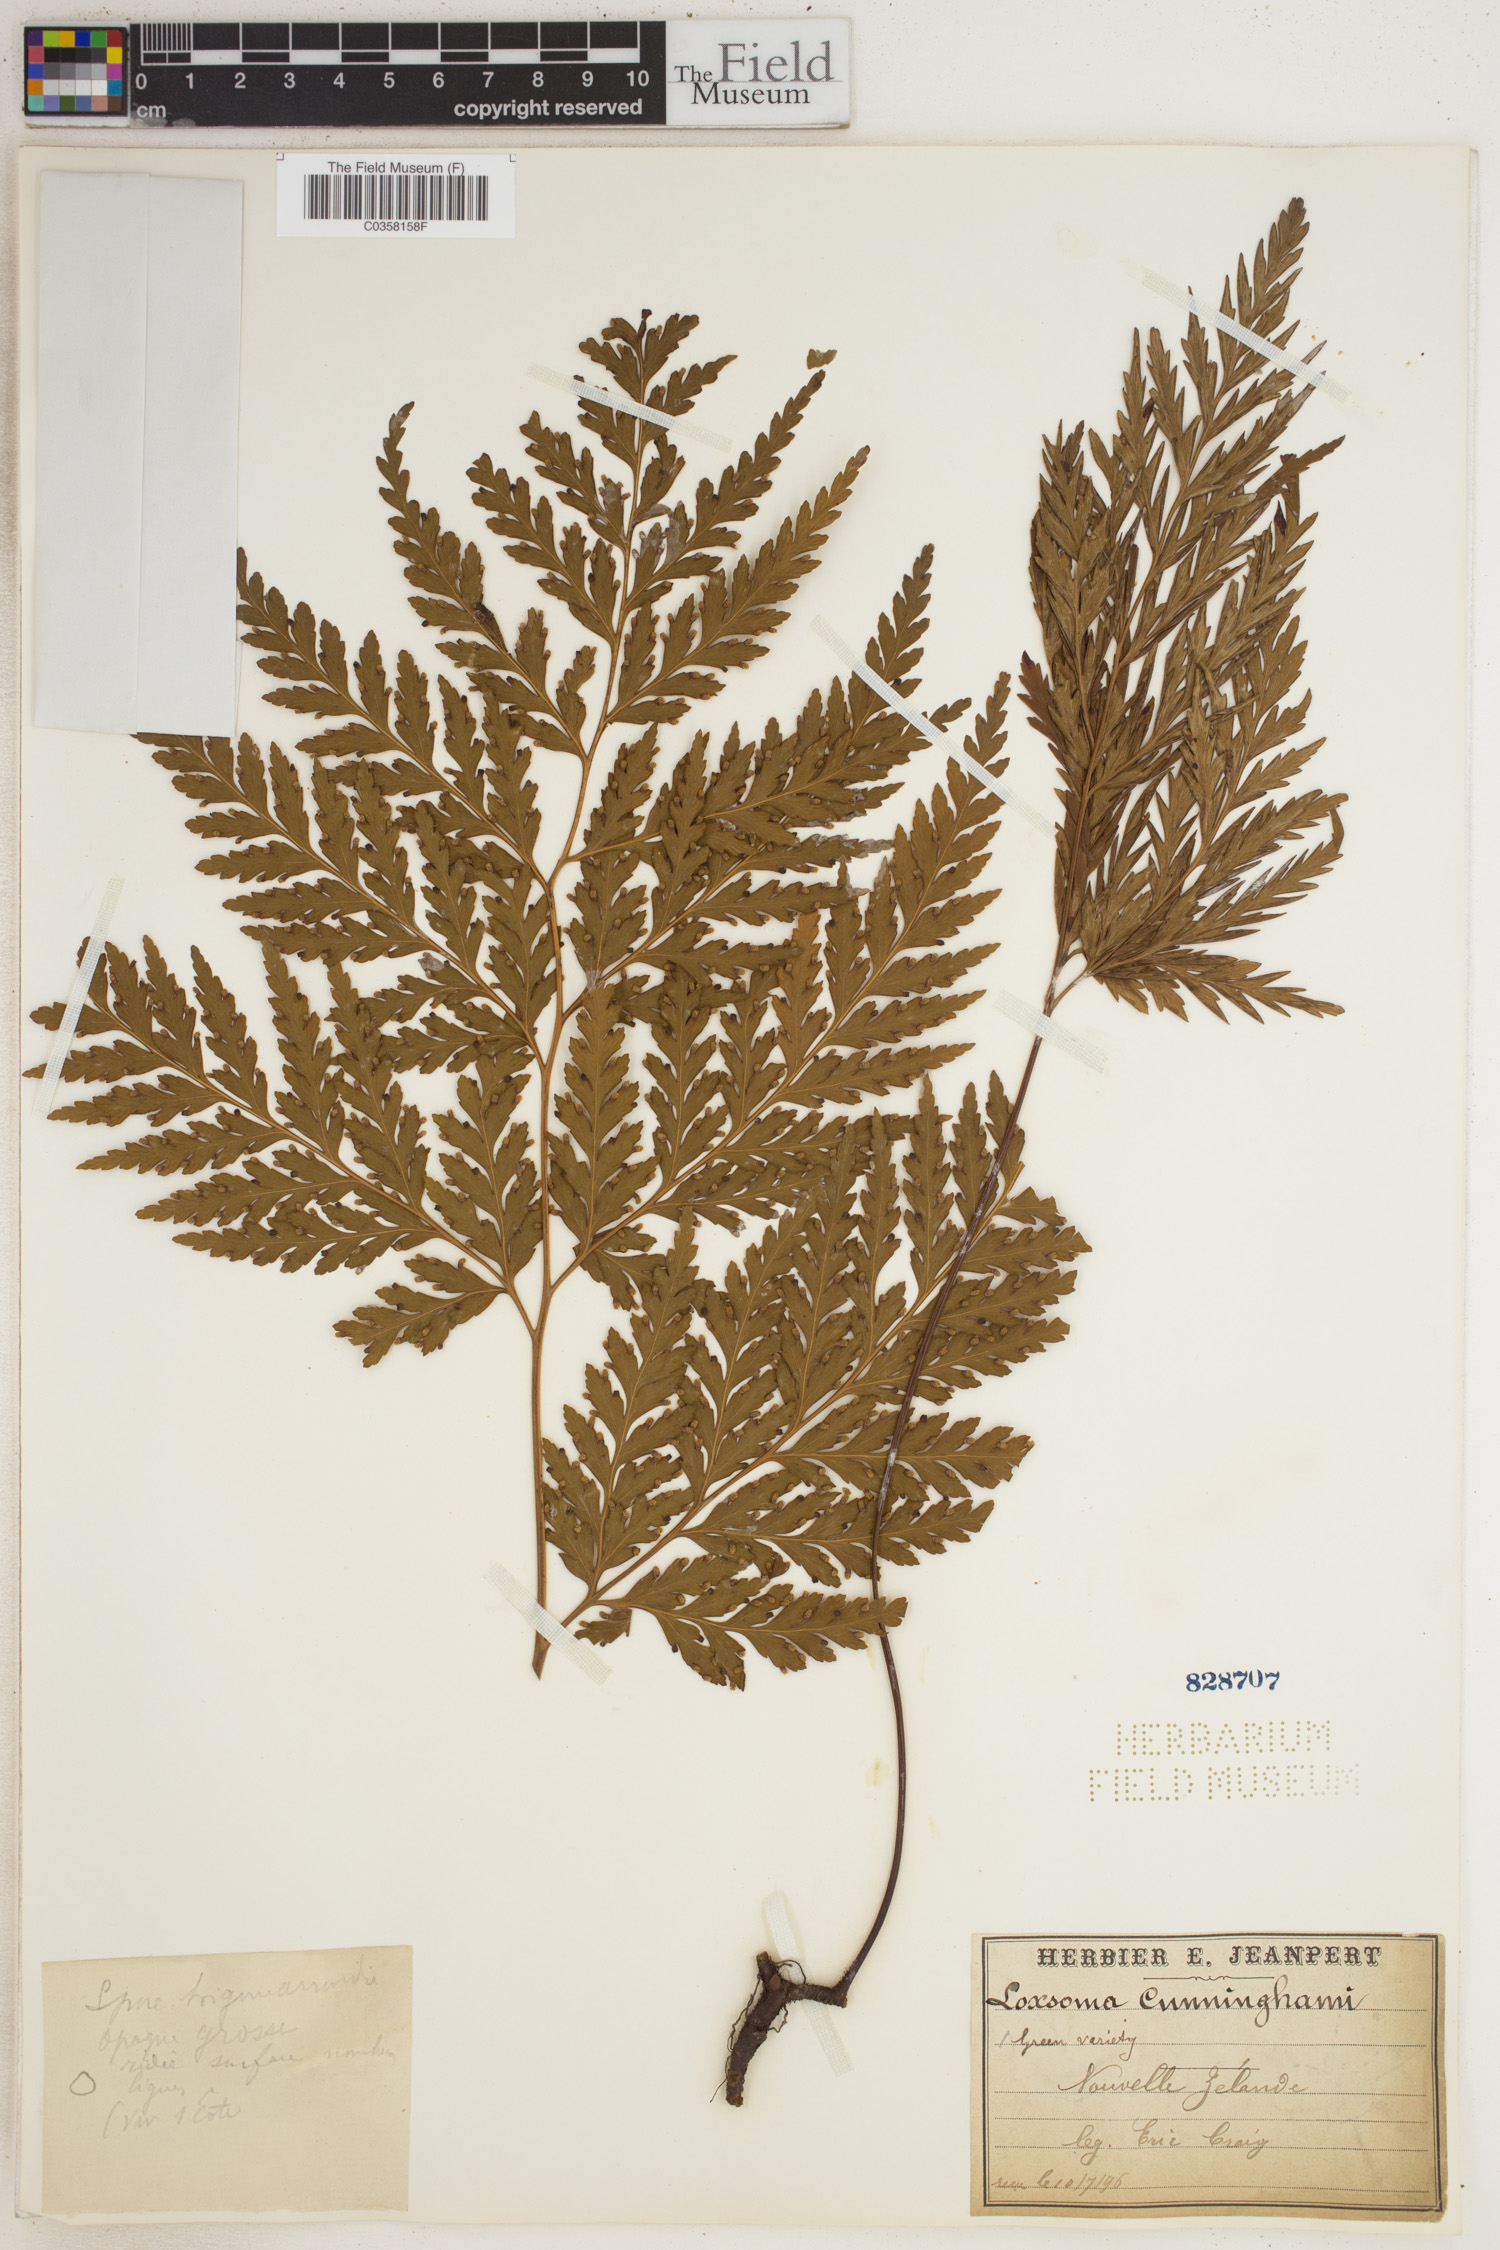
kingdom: Plantae
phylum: Tracheophyta
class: Polypodiopsida
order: Cyatheales
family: Loxsomataceae
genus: Loxsoma
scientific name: Loxsoma cunninghamii
